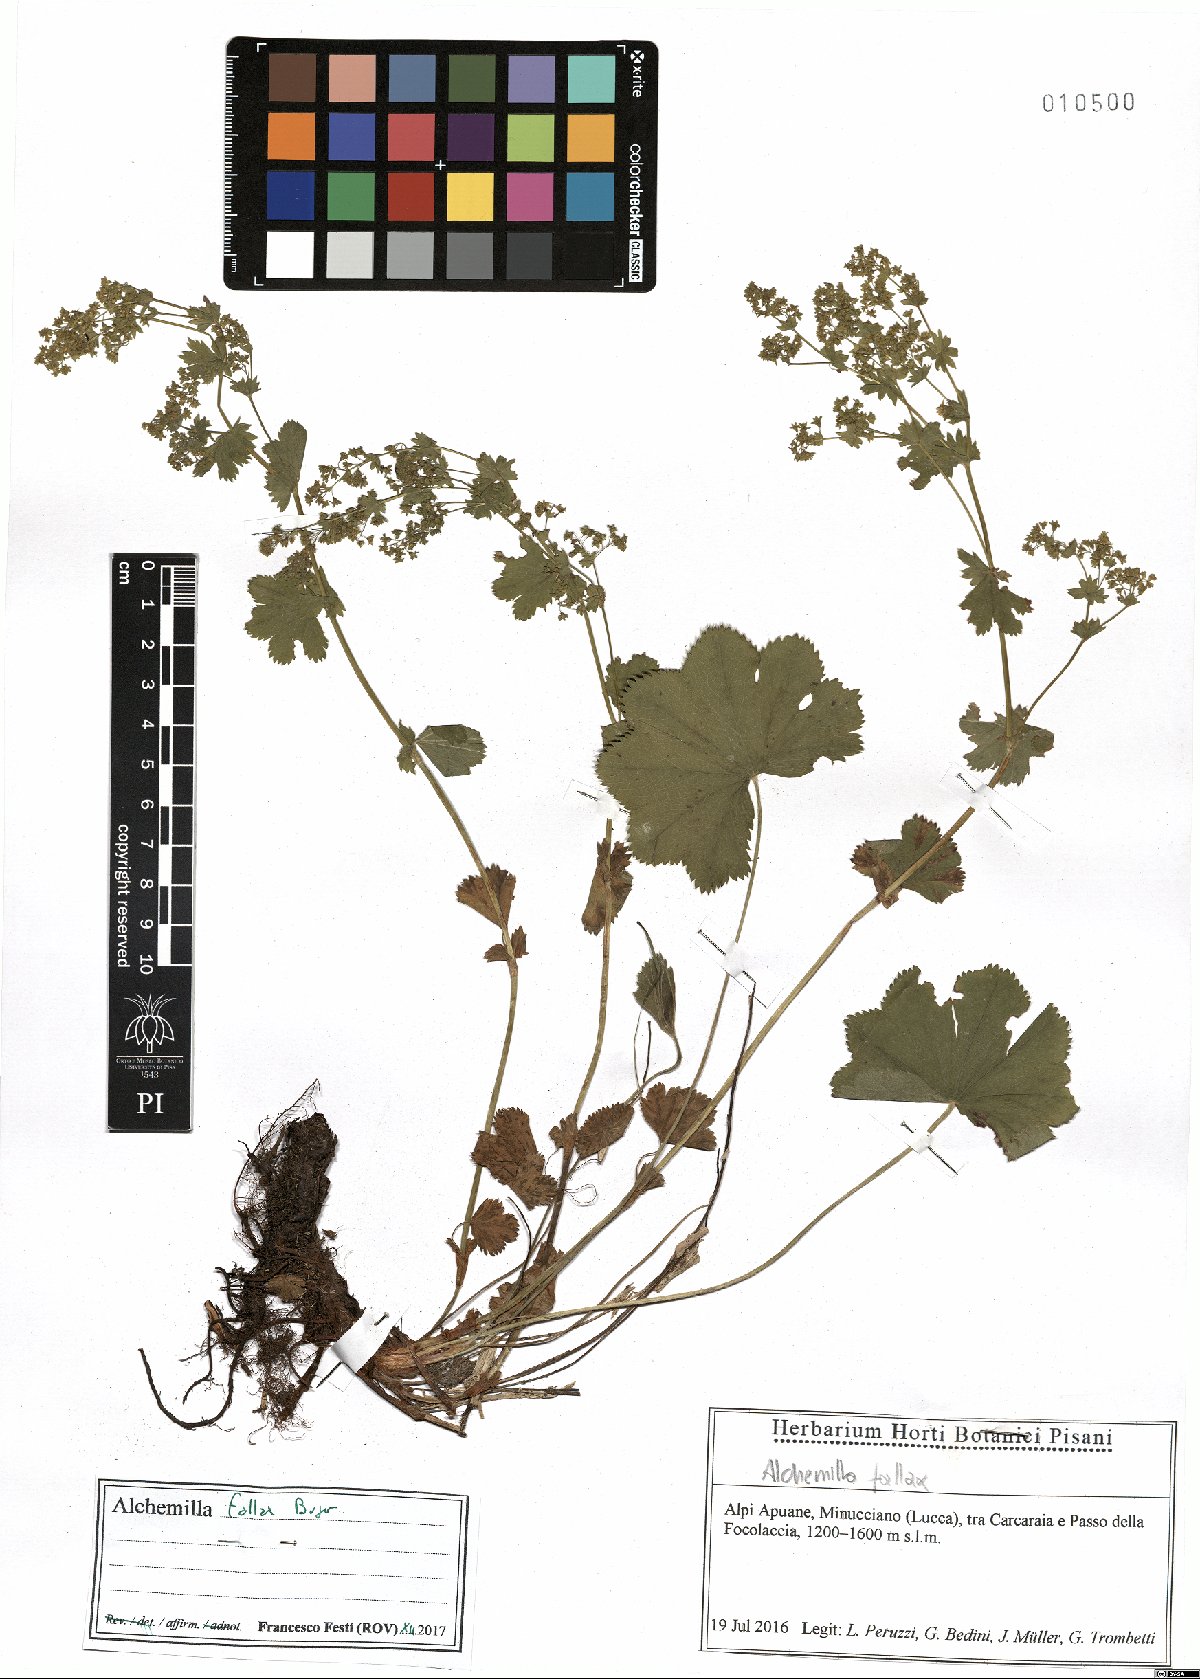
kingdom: Plantae
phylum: Tracheophyta
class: Magnoliopsida
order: Rosales
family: Rosaceae
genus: Alchemilla
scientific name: Alchemilla fallax
